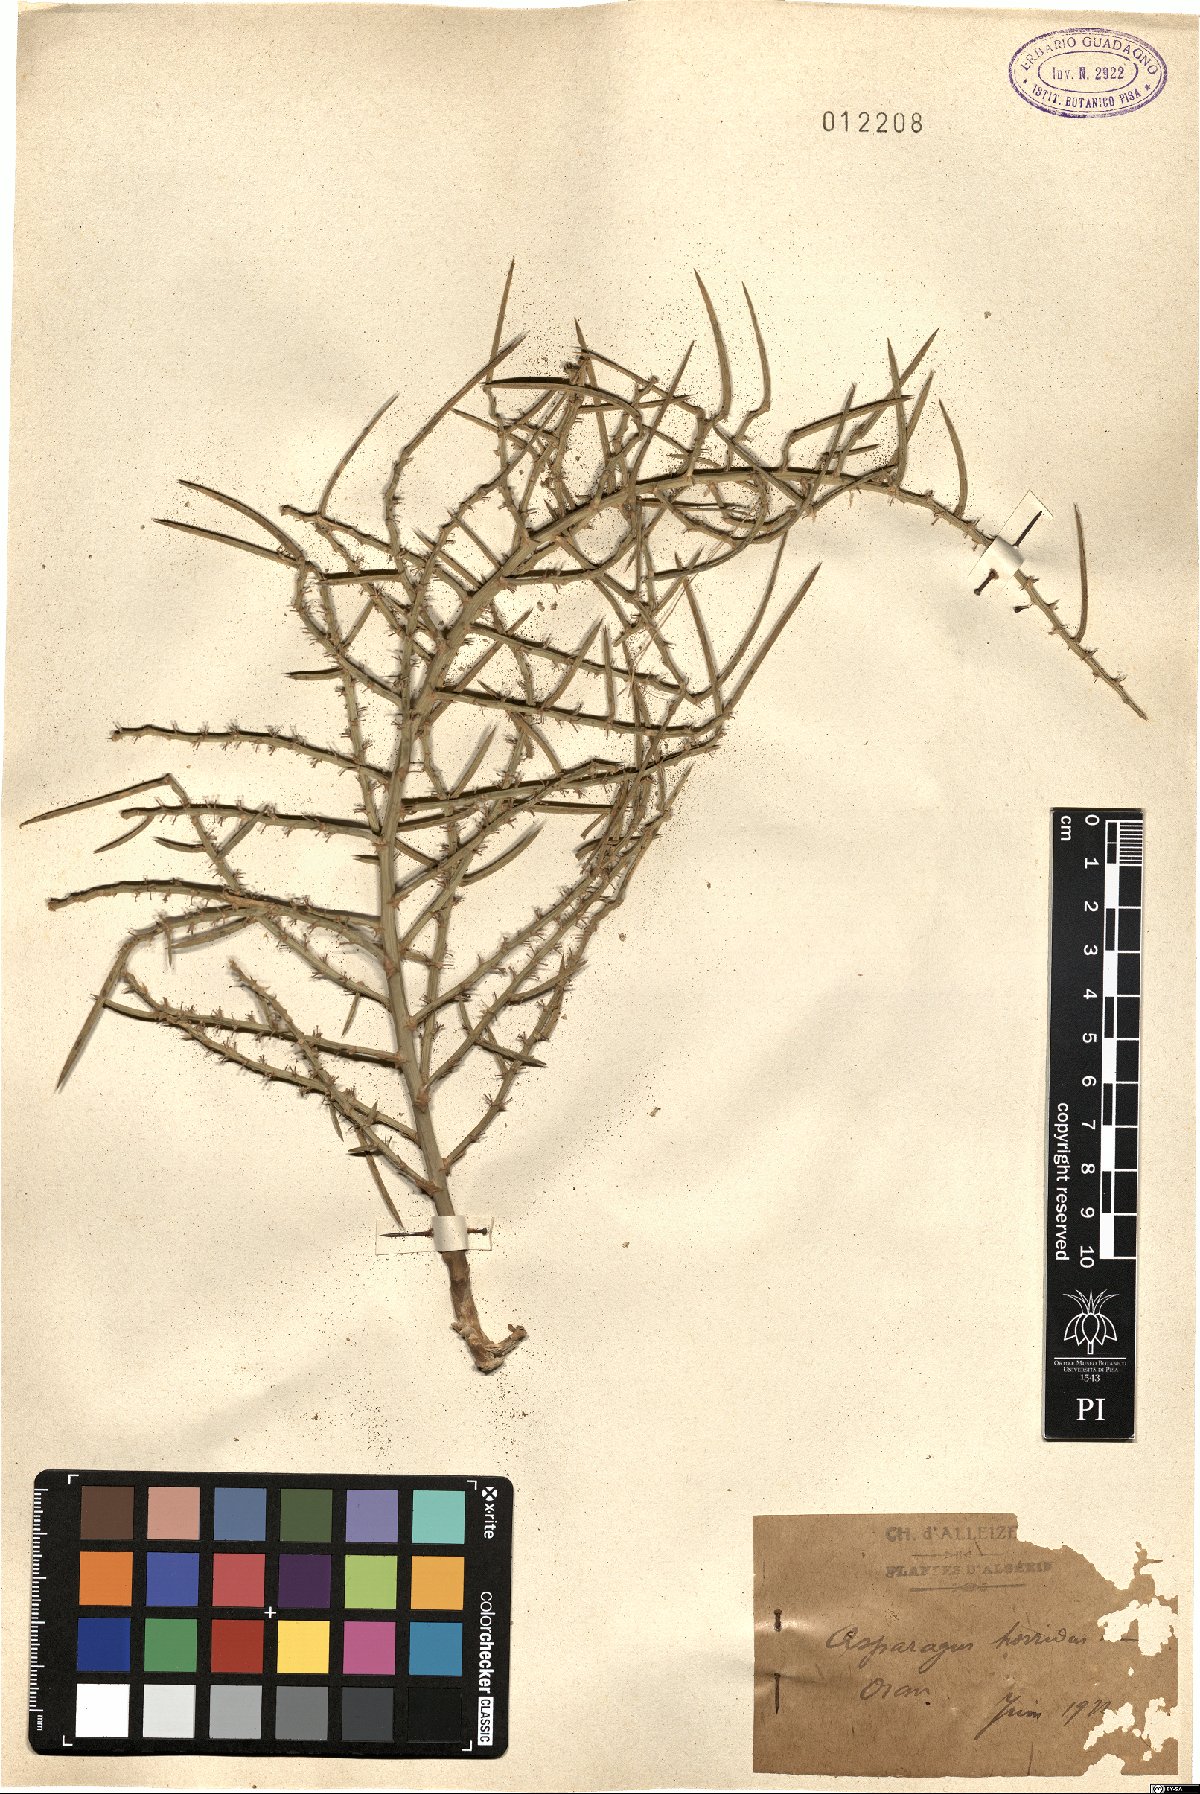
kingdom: Plantae
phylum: Tracheophyta
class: Liliopsida
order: Asparagales
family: Asparagaceae
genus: Asparagus
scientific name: Asparagus horridus
